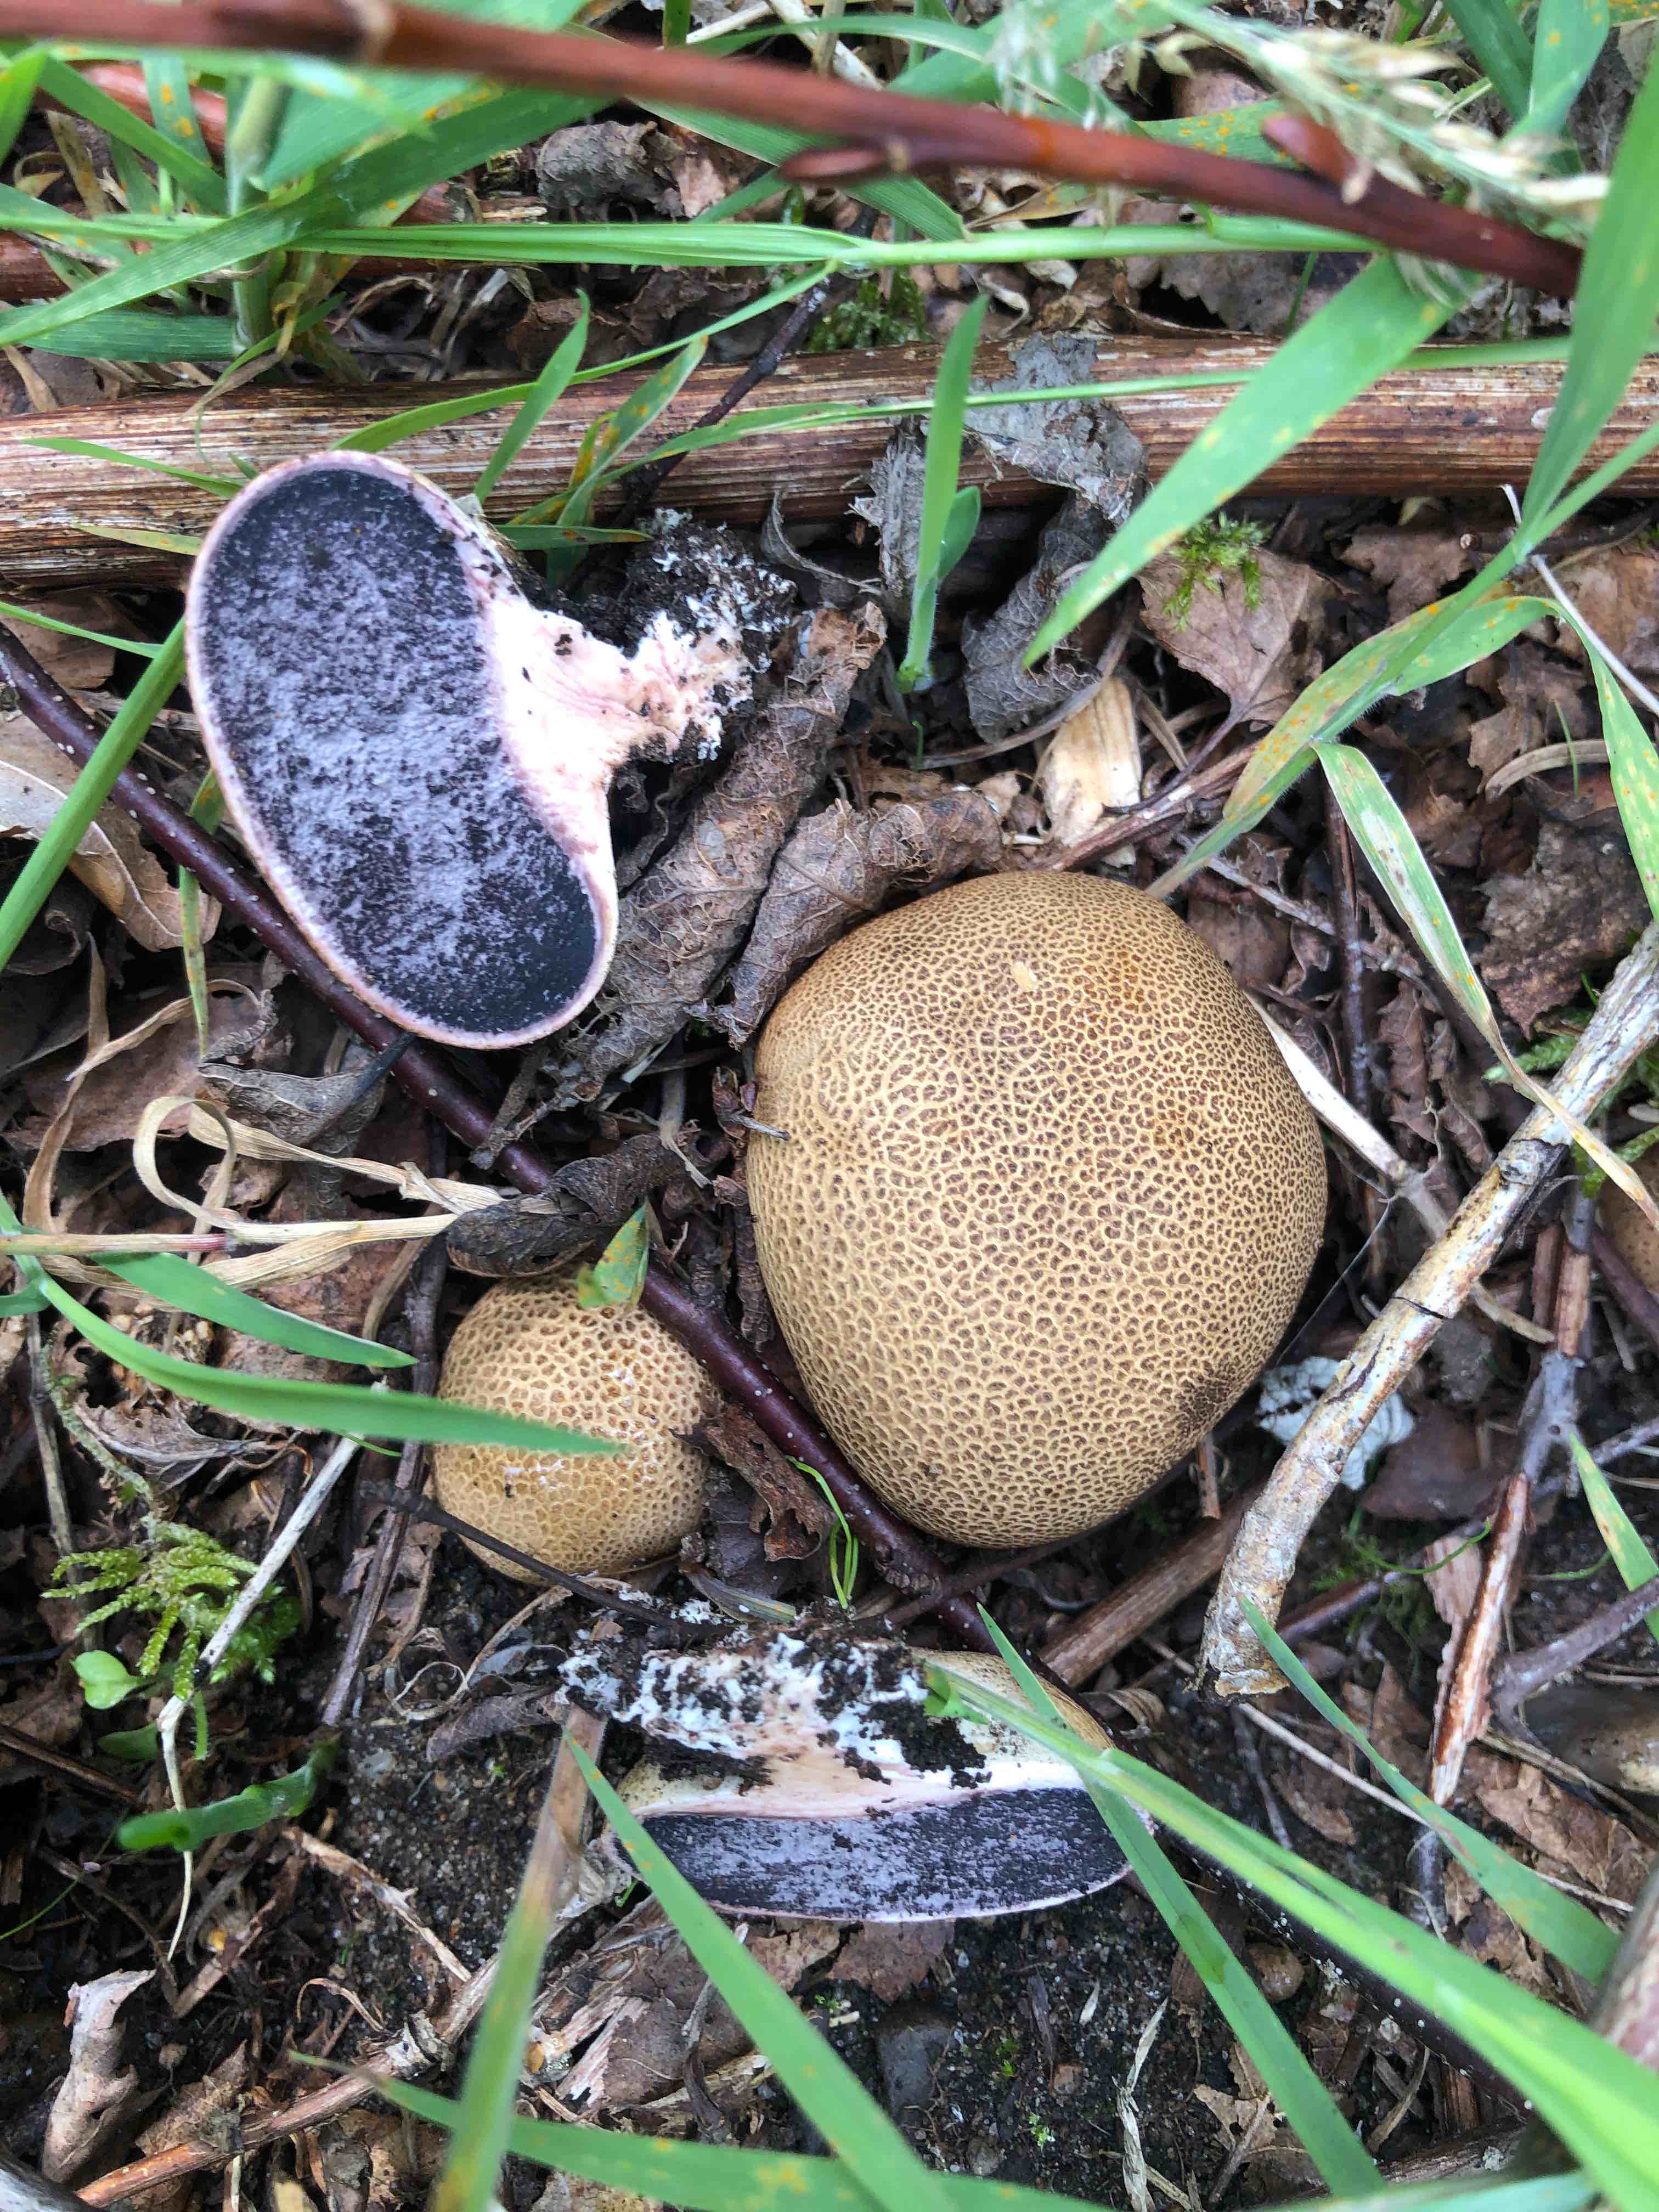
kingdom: Fungi
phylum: Basidiomycota
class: Agaricomycetes
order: Boletales
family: Sclerodermataceae
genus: Scleroderma
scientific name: Scleroderma areolatum
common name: plettet bruskbold
